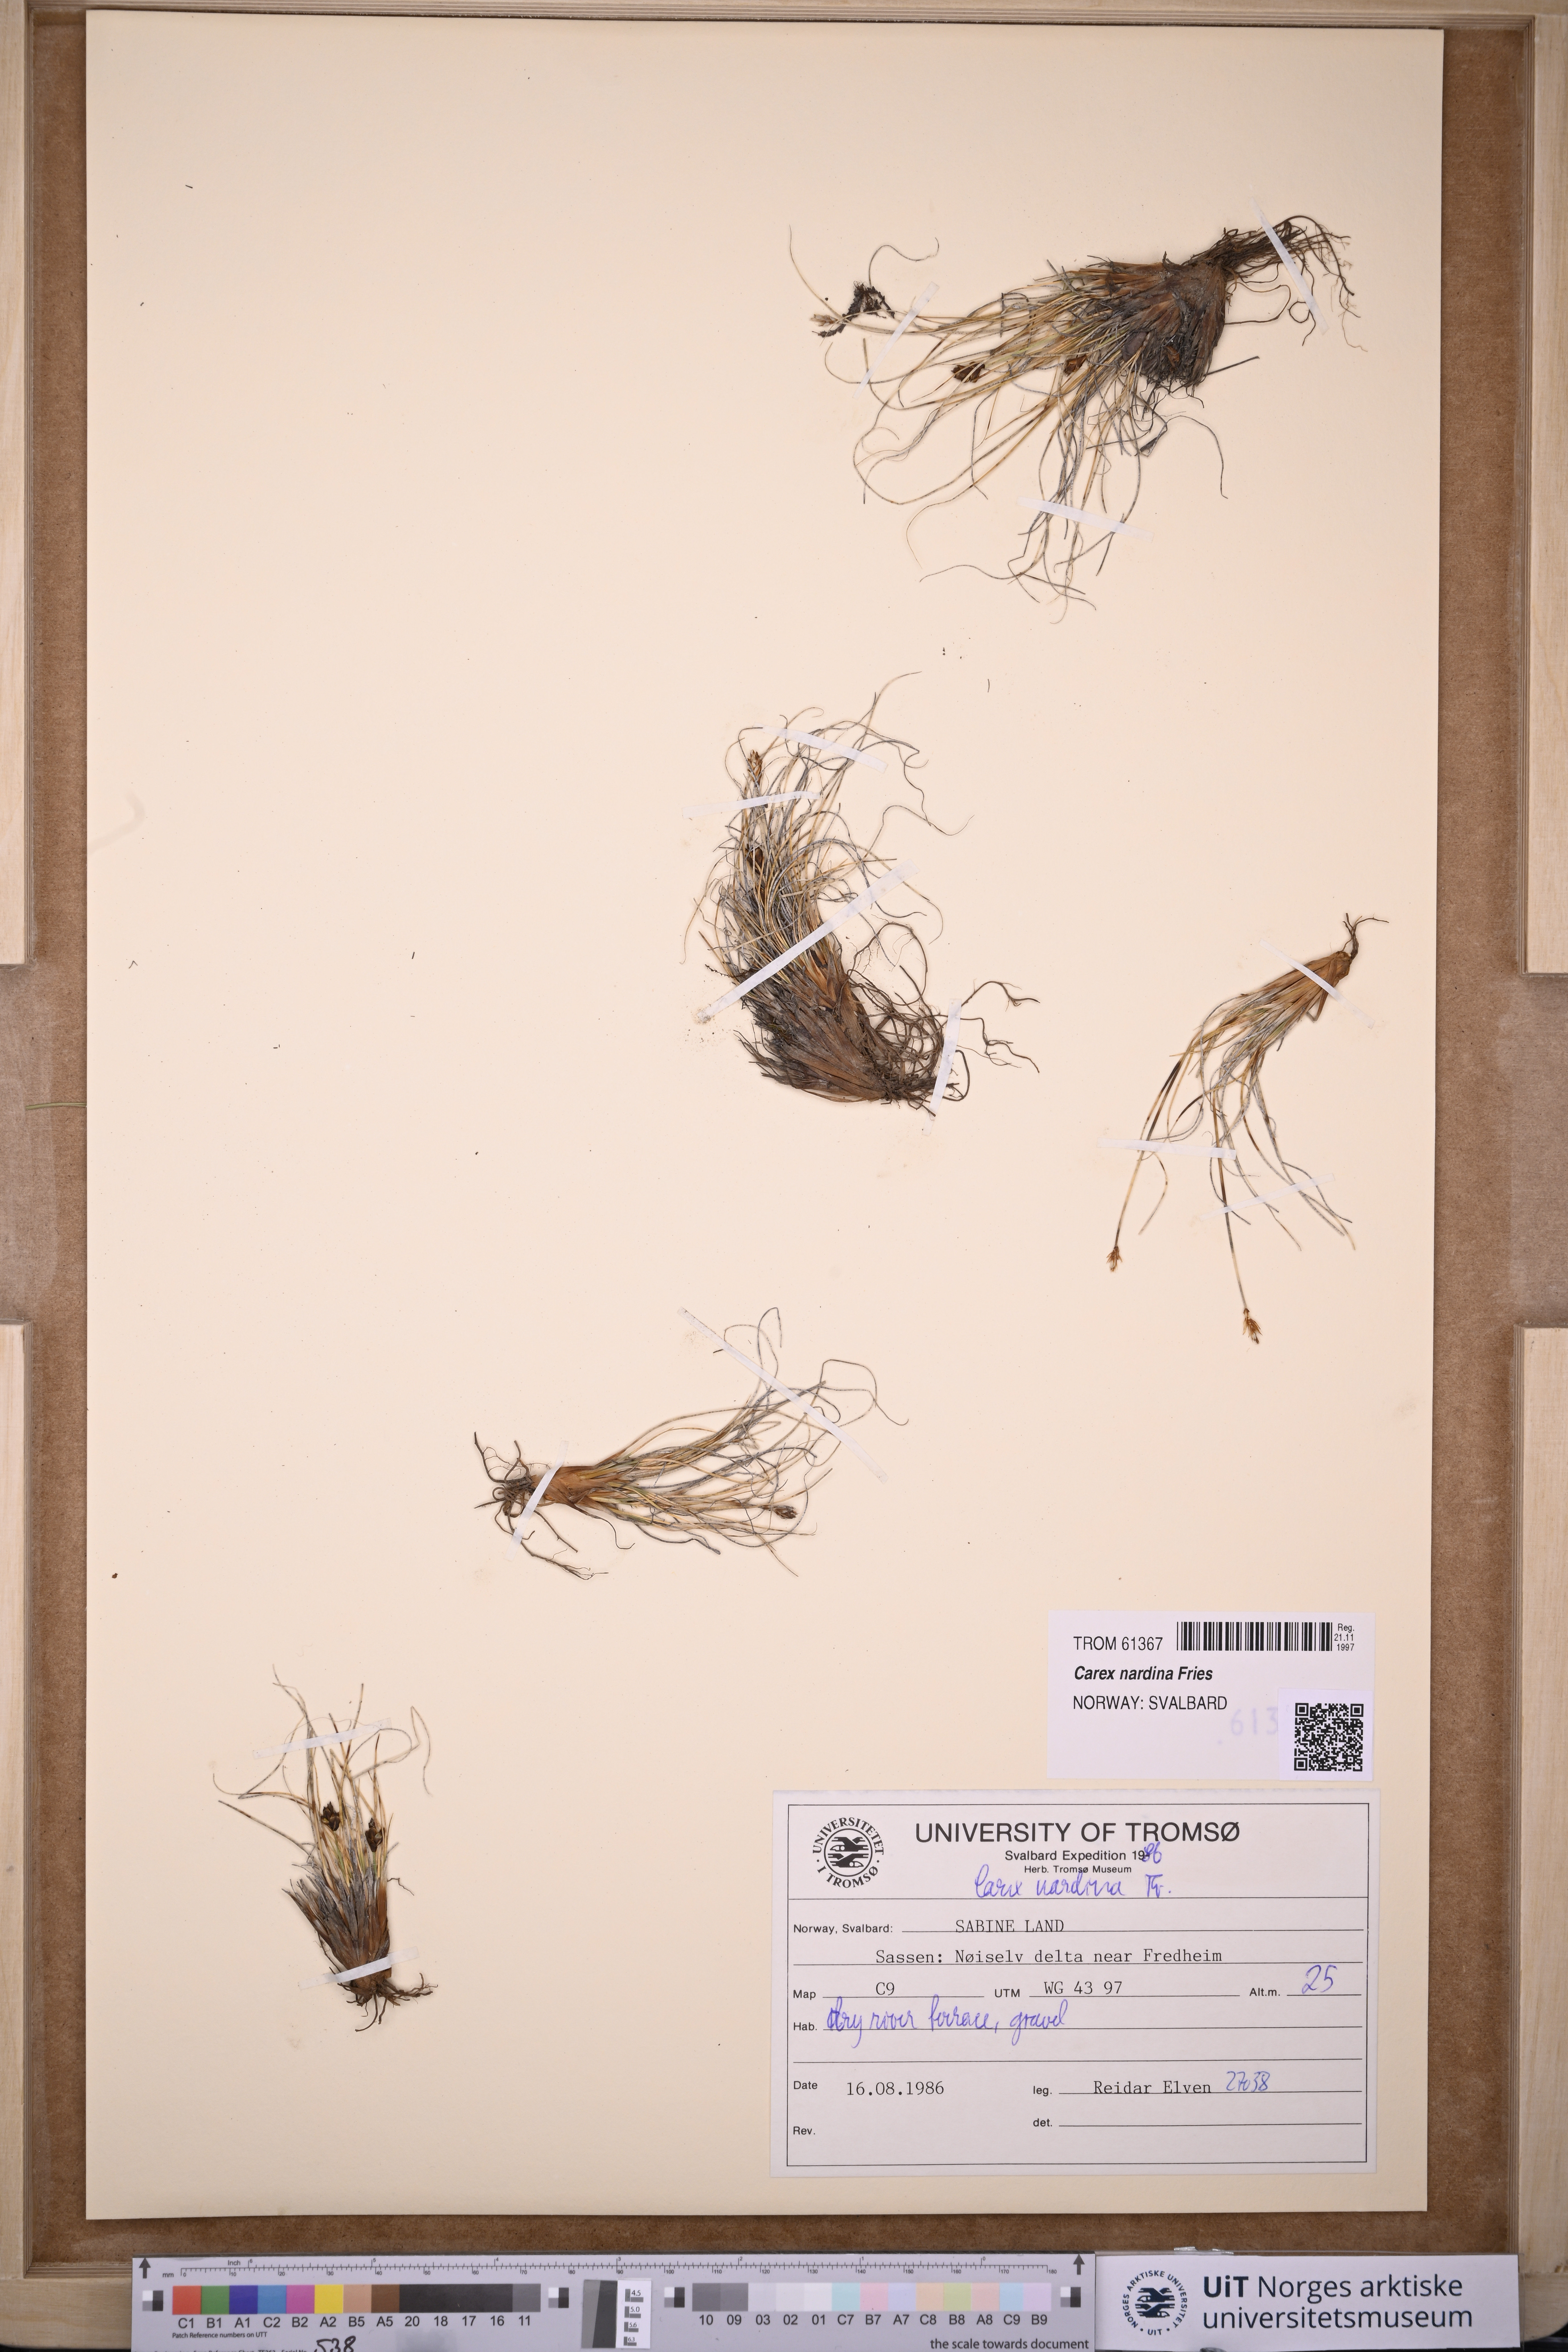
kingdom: Plantae
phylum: Tracheophyta
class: Liliopsida
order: Poales
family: Cyperaceae
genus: Carex
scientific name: Carex nardina
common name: Nard sedge
